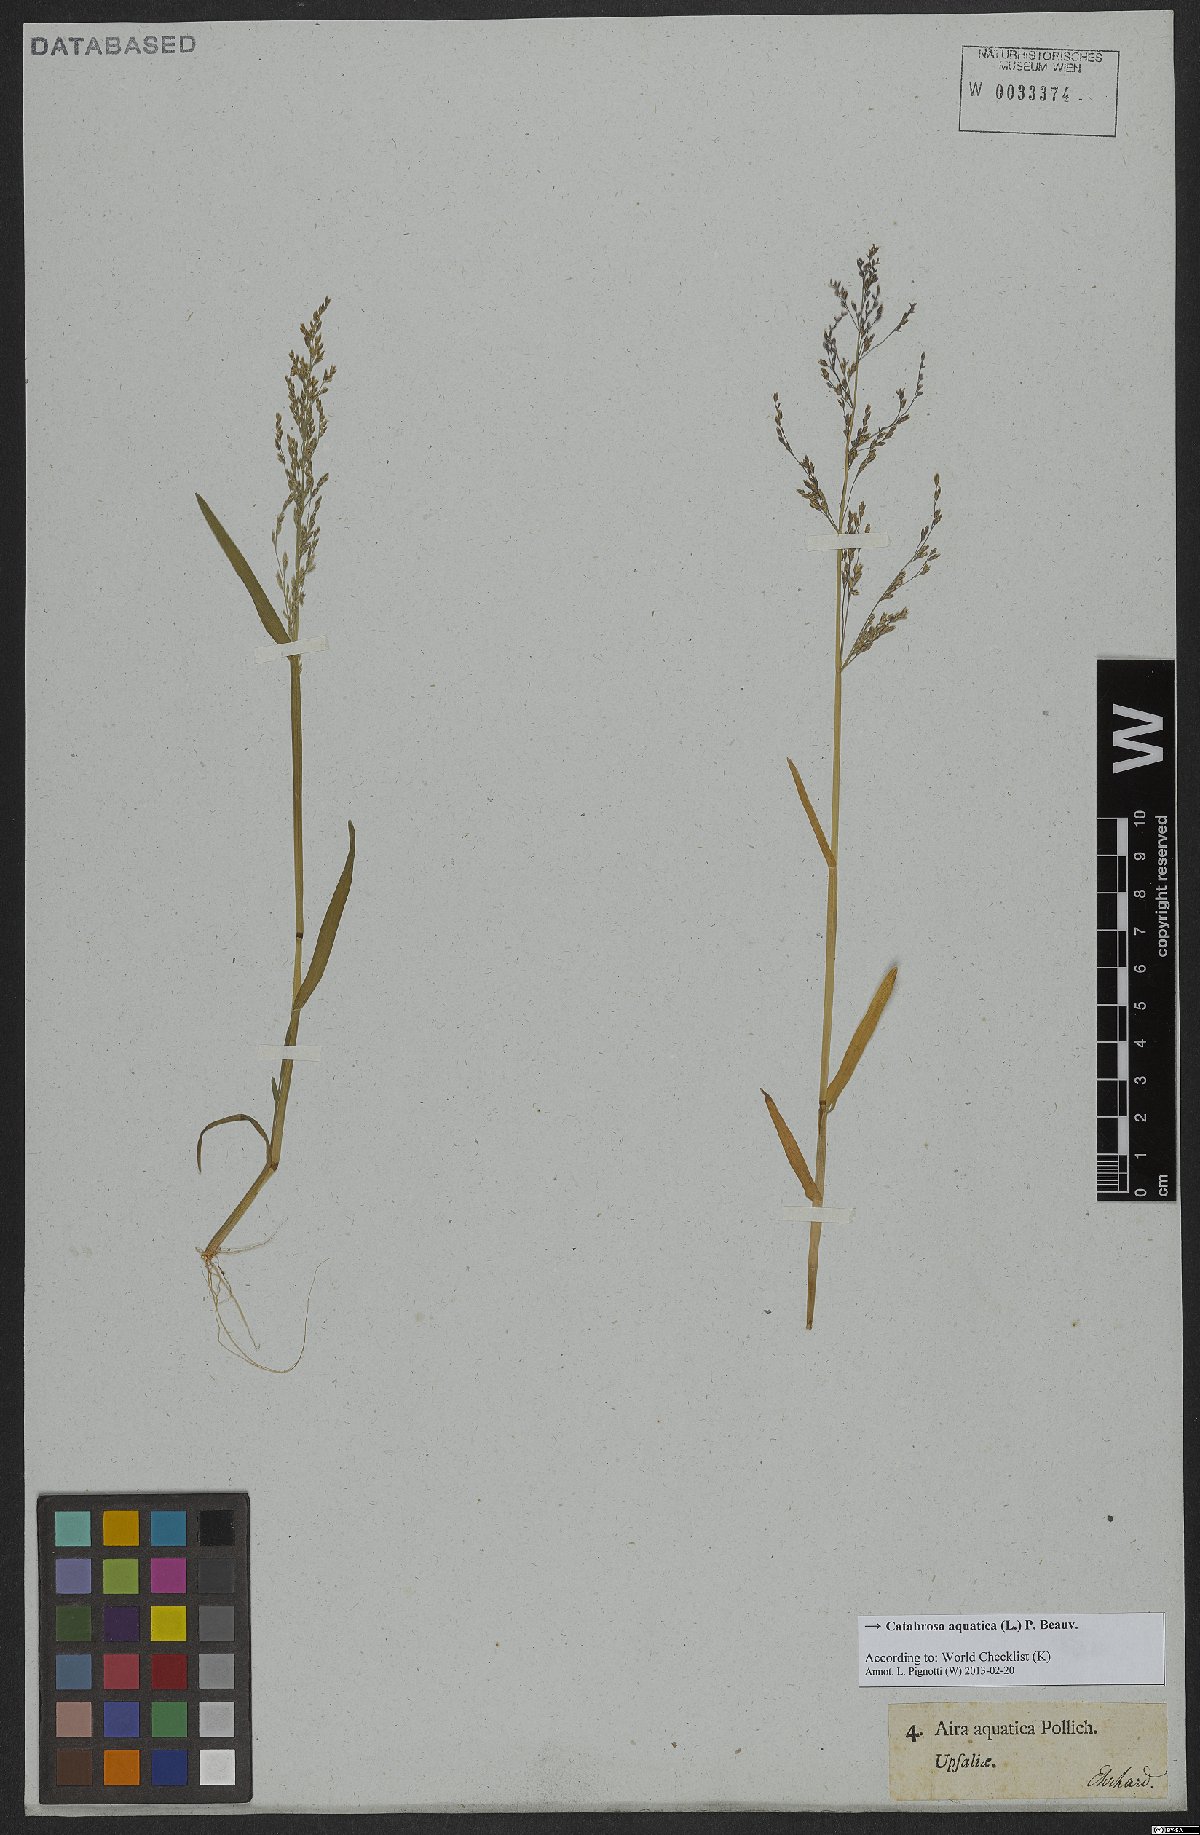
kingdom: Plantae
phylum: Tracheophyta
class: Liliopsida
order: Poales
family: Poaceae
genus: Catabrosa
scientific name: Catabrosa aquatica
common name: Whorl-grass
